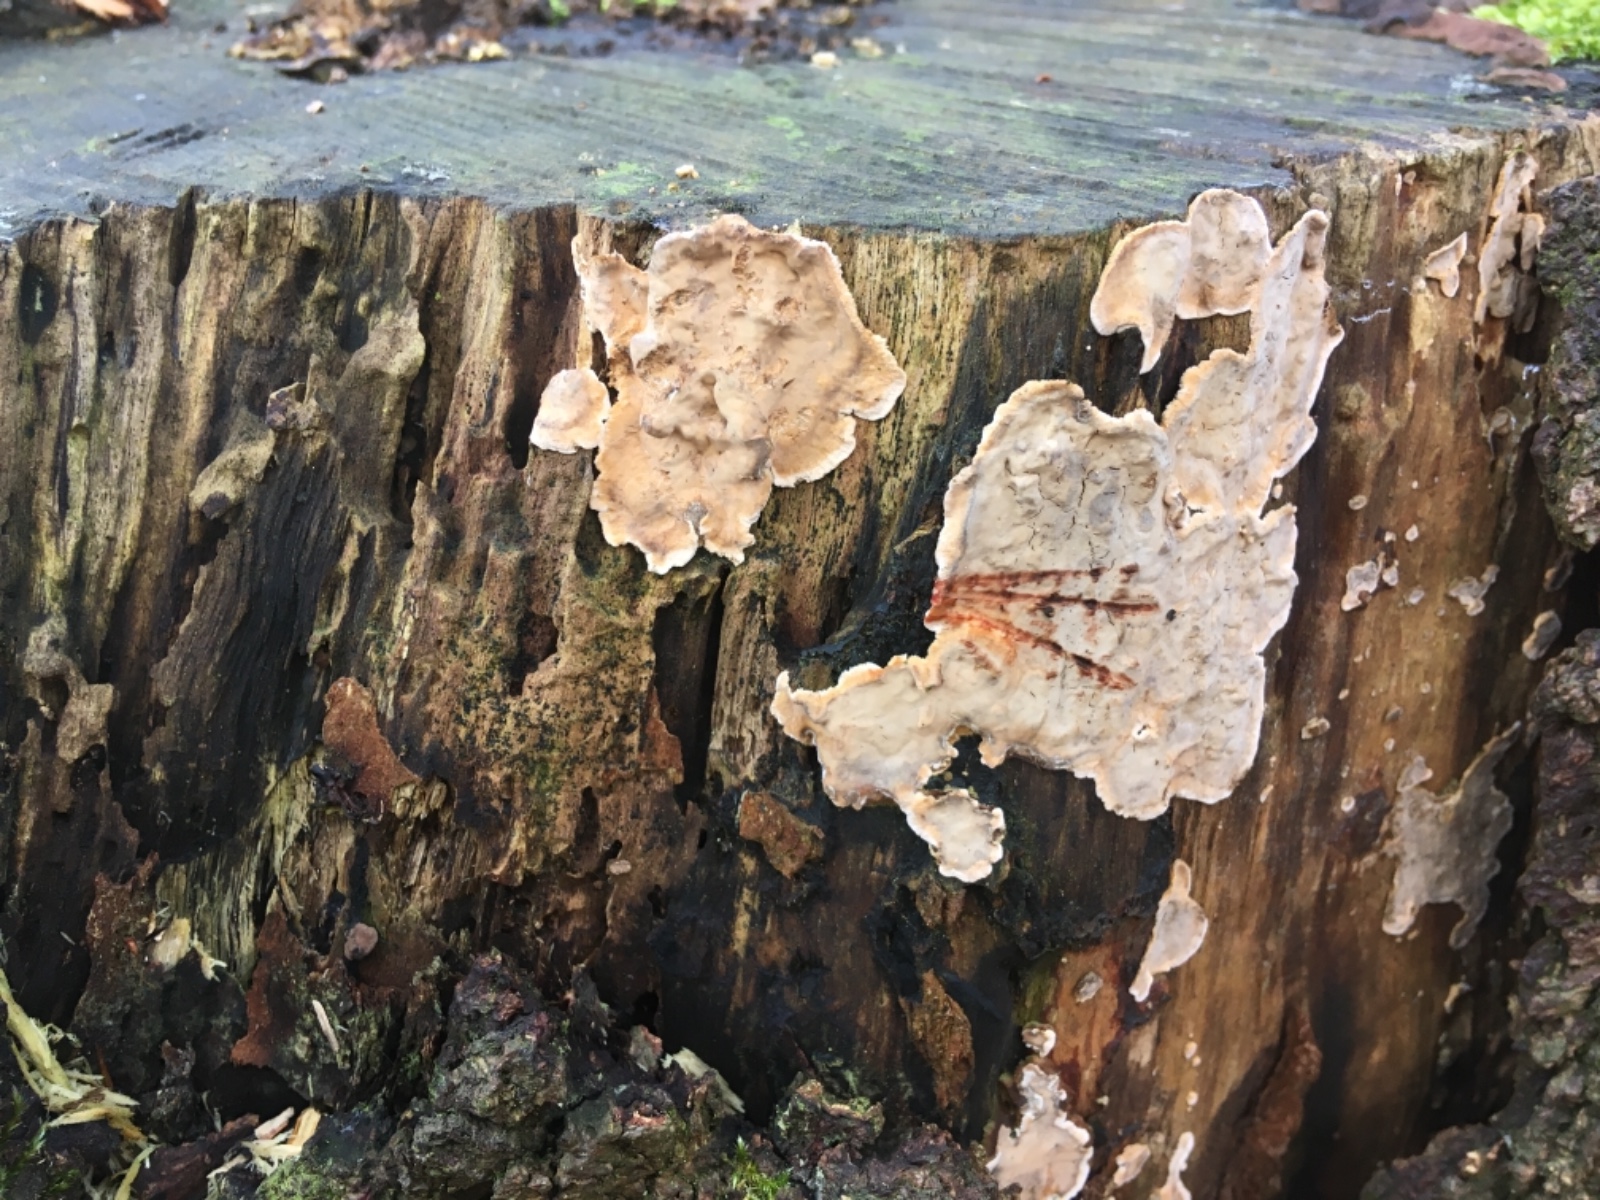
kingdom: Fungi
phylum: Basidiomycota
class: Agaricomycetes
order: Russulales
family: Stereaceae
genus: Stereum
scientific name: Stereum rugosum
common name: rynket lædersvamp
